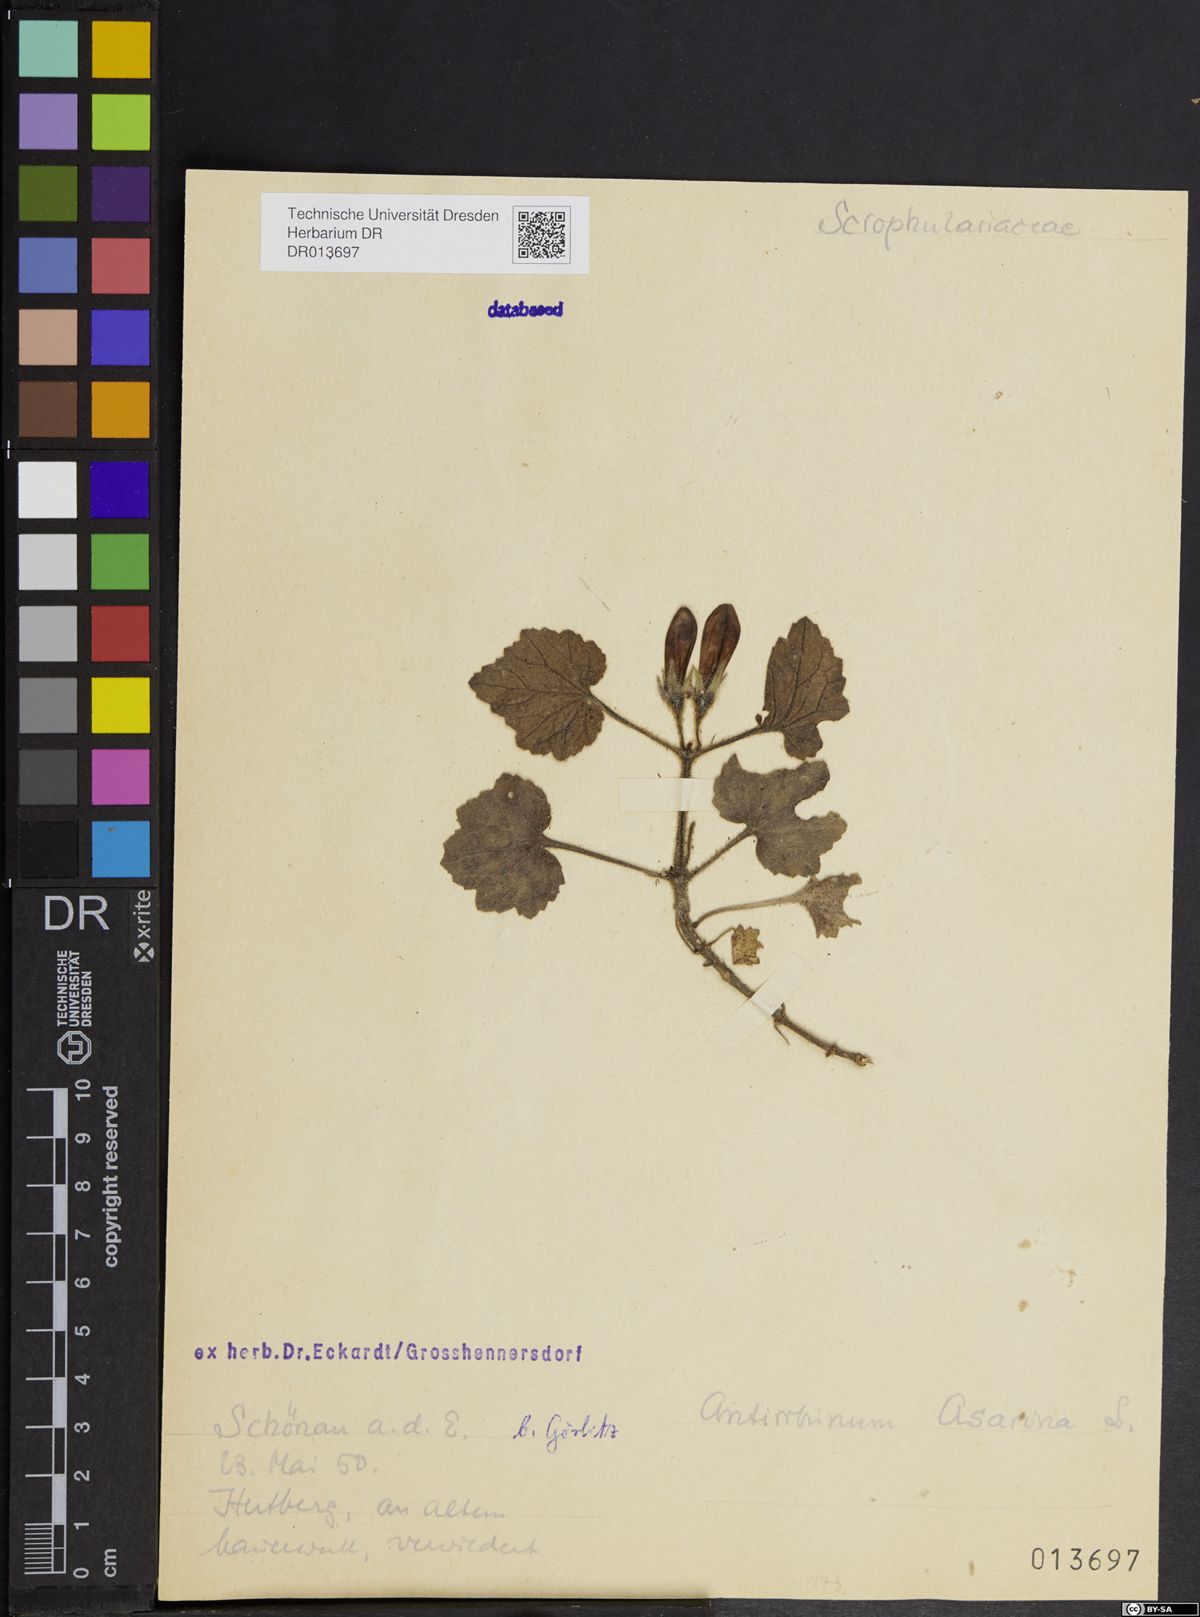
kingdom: Plantae
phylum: Tracheophyta
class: Magnoliopsida
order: Lamiales
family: Plantaginaceae
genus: Asarina
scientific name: Asarina procumbens
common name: Trailing snapdragon
